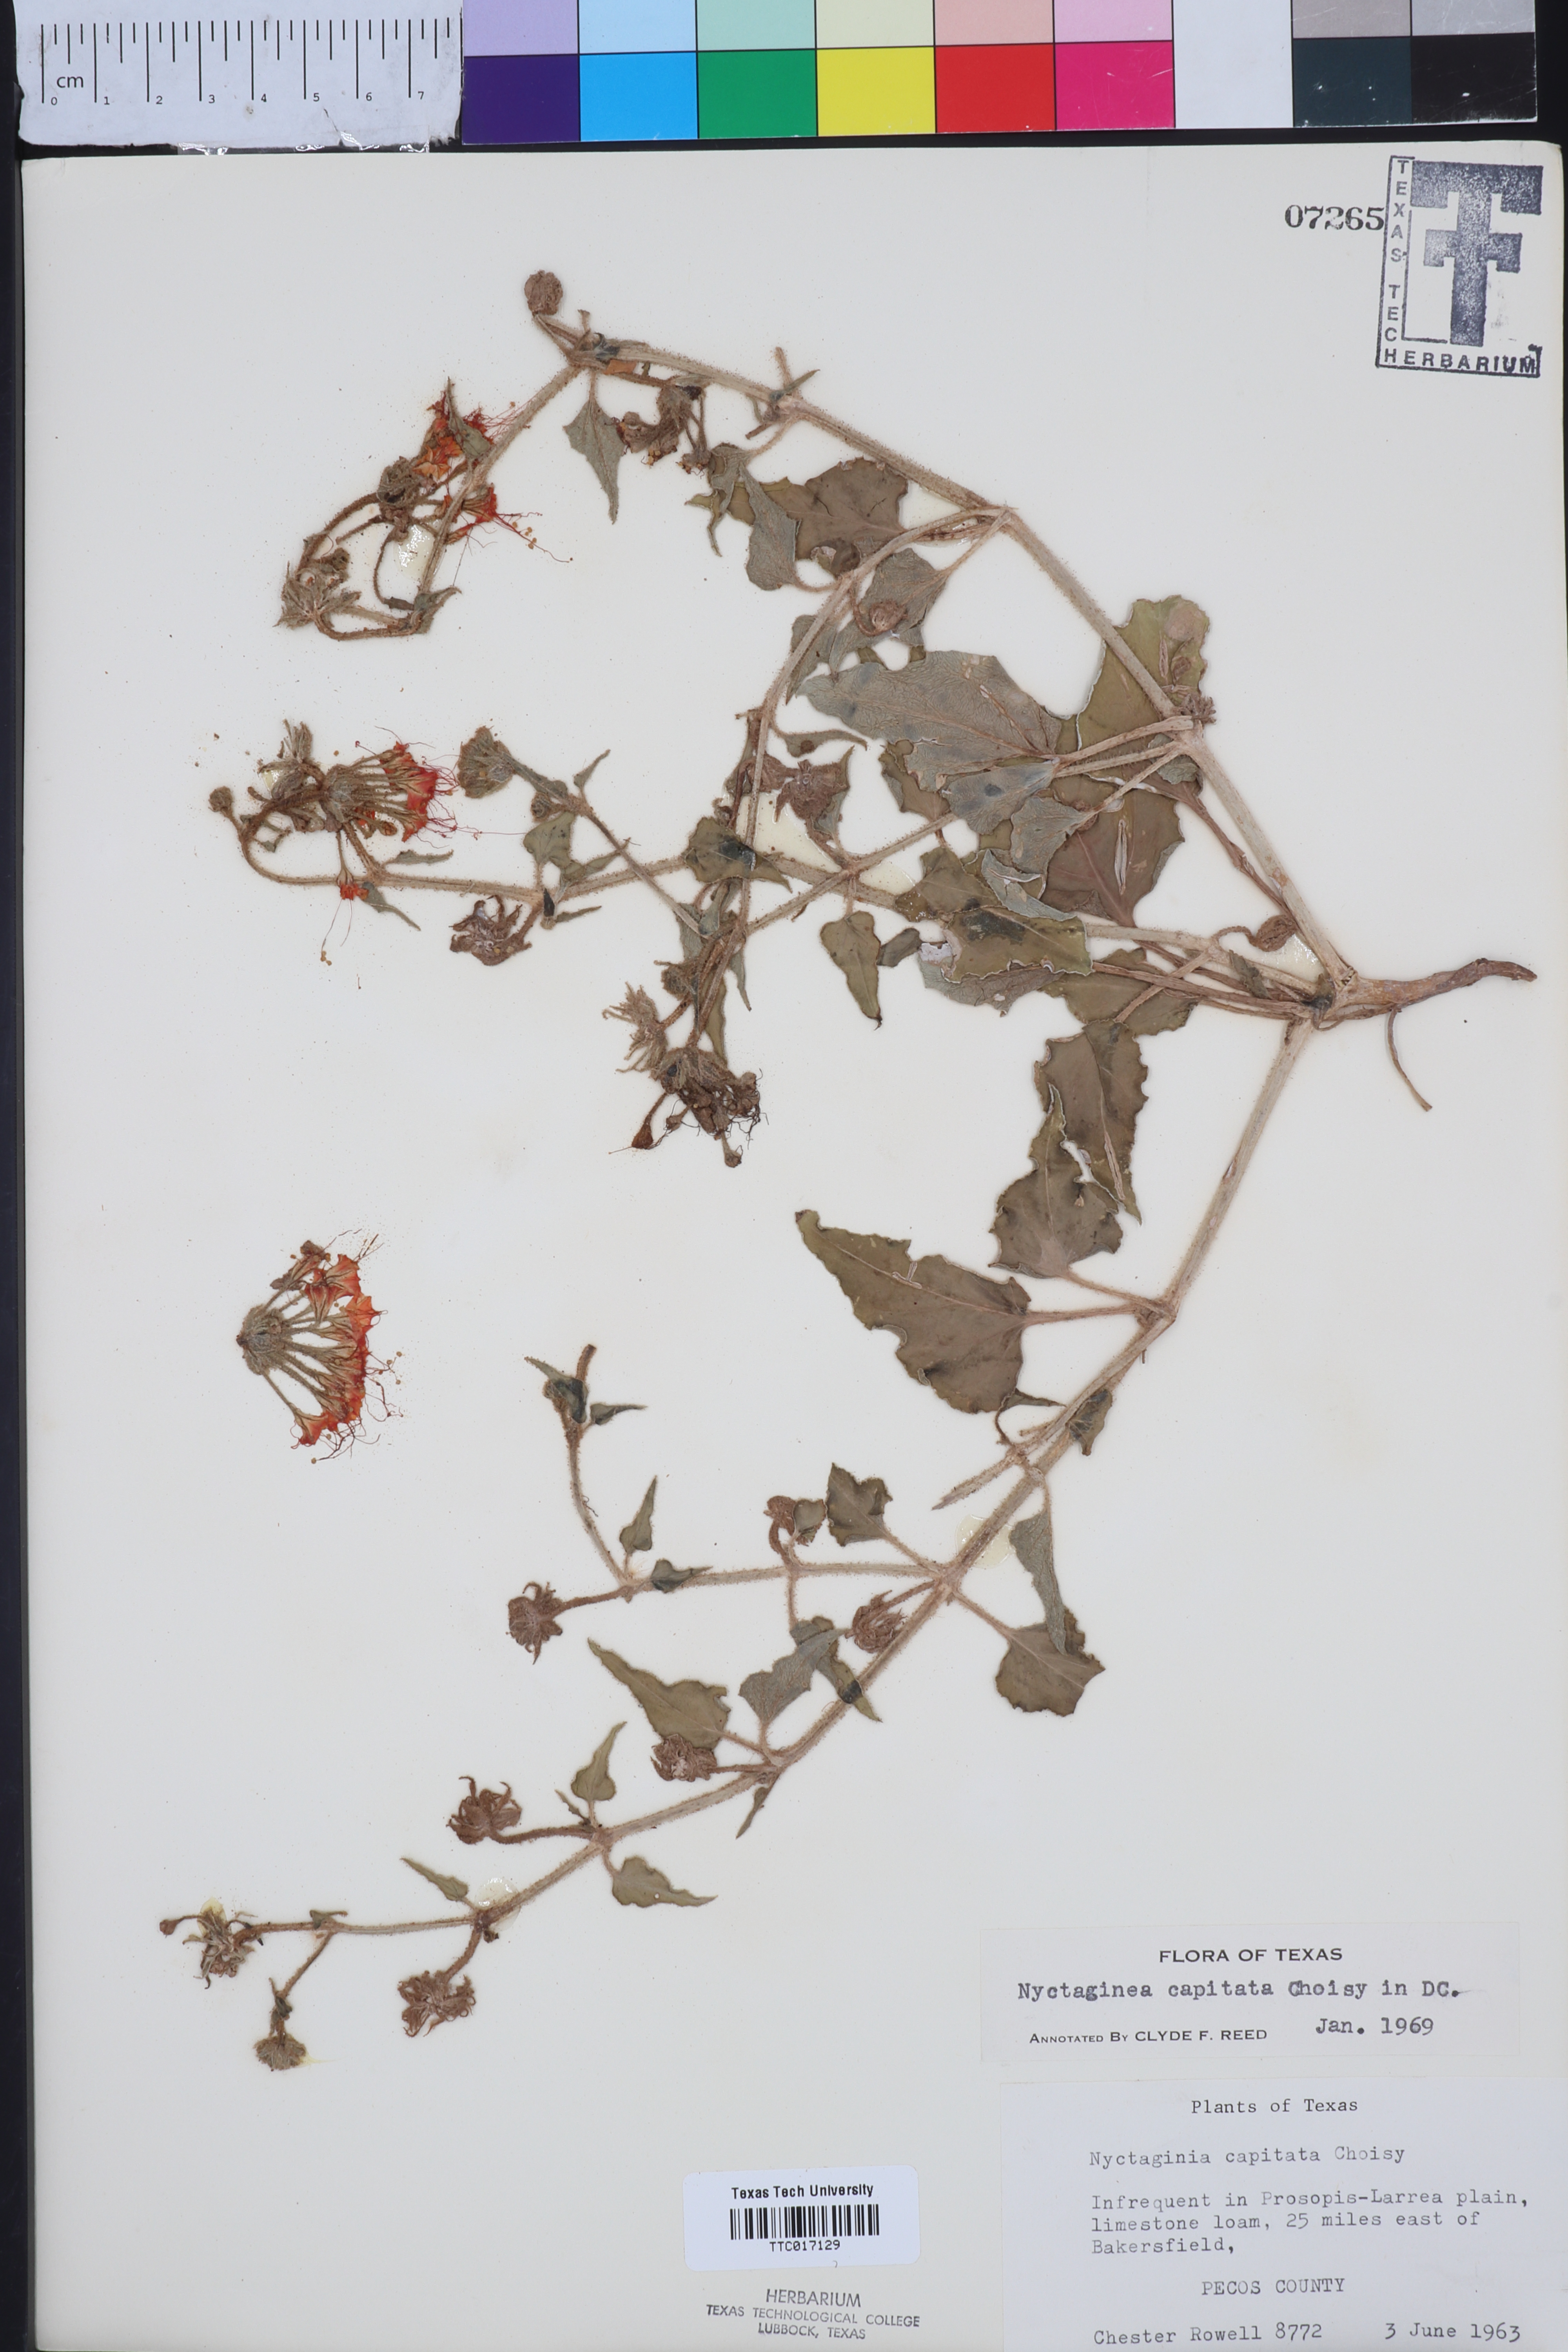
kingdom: Plantae
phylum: Tracheophyta
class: Magnoliopsida
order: Caryophyllales
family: Nyctaginaceae
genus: Nyctaginia
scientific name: Nyctaginia capitata
